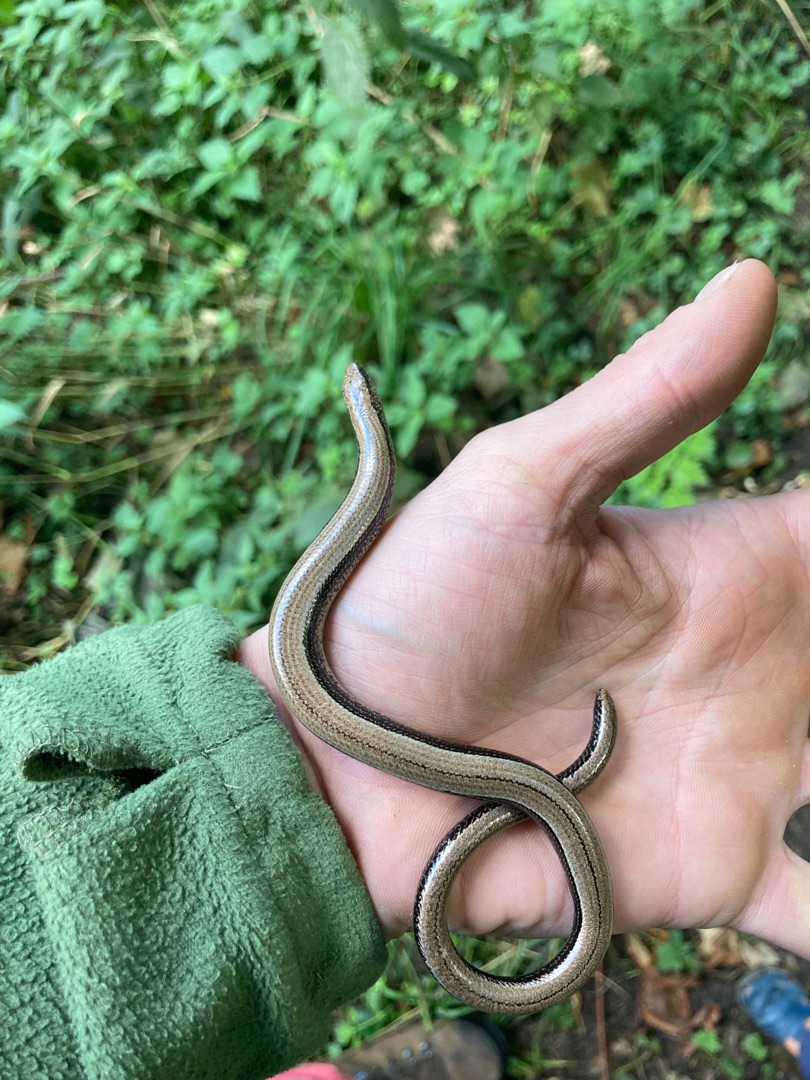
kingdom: Animalia
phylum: Chordata
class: Squamata
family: Anguidae
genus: Anguis
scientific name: Anguis fragilis
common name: Stålorm
